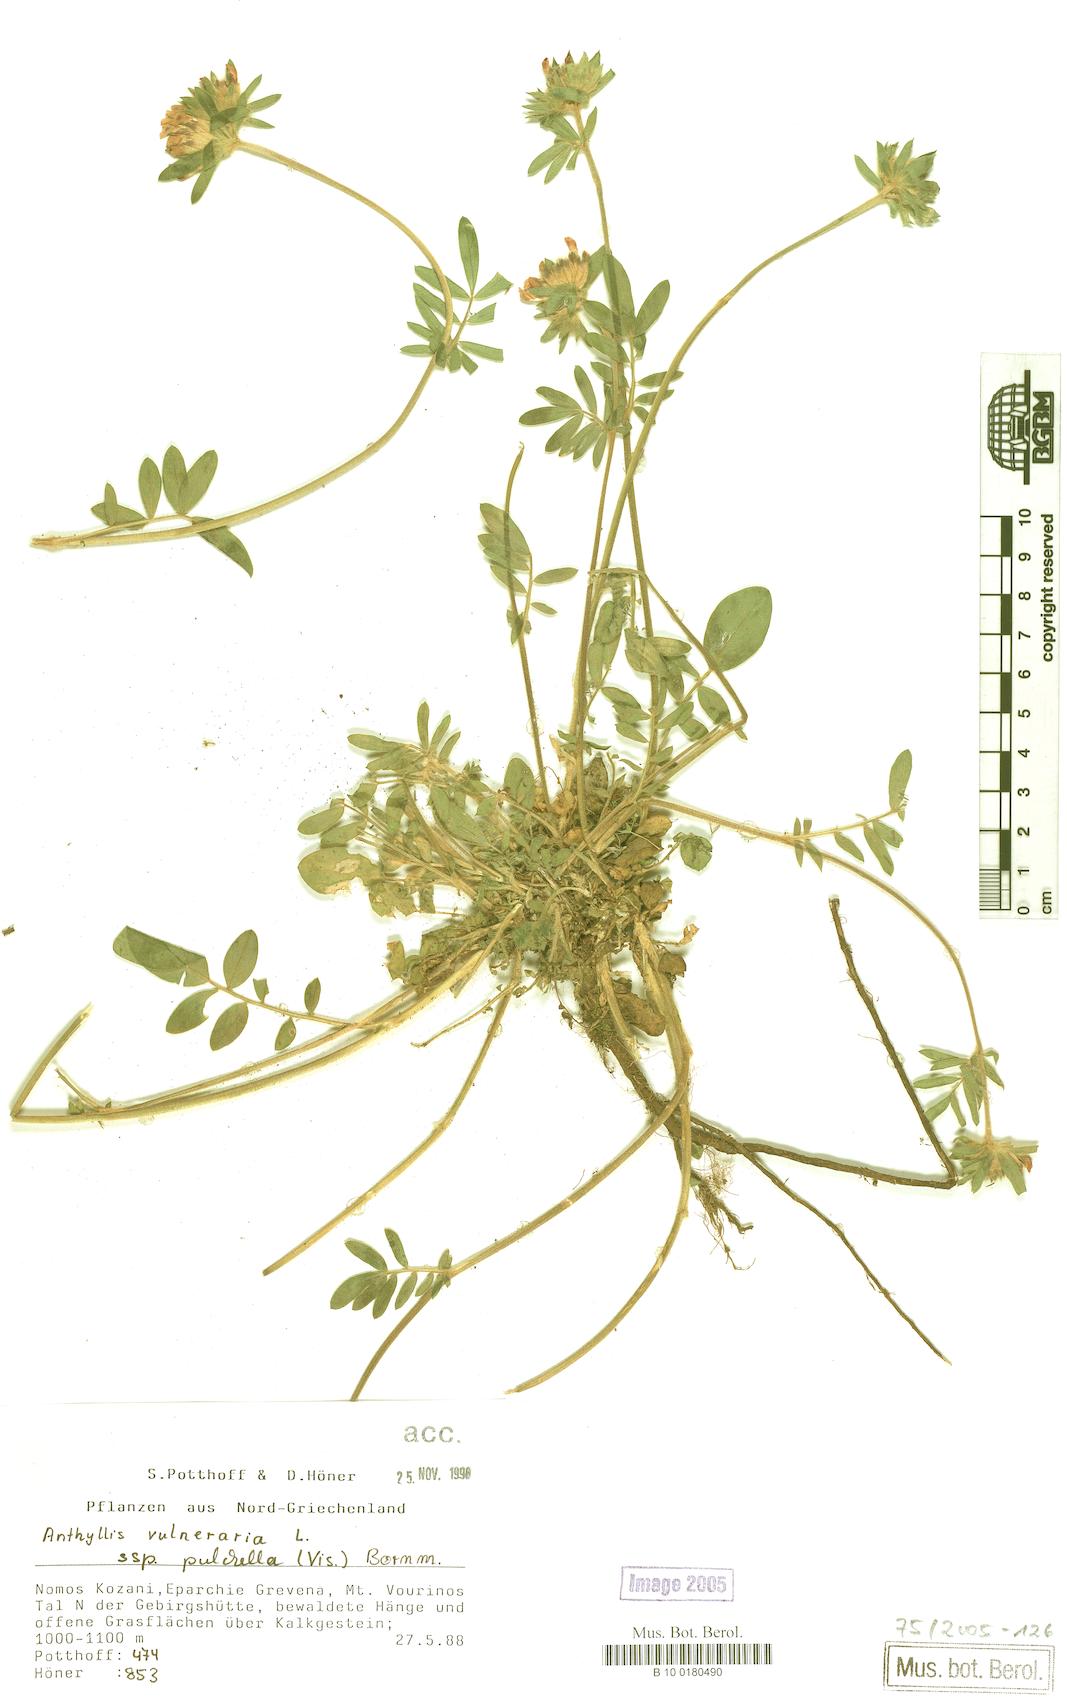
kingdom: Plantae
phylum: Tracheophyta
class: Magnoliopsida
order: Fabales
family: Fabaceae
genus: Anthyllis
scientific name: Anthyllis vulneraria
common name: Kidney vetch
